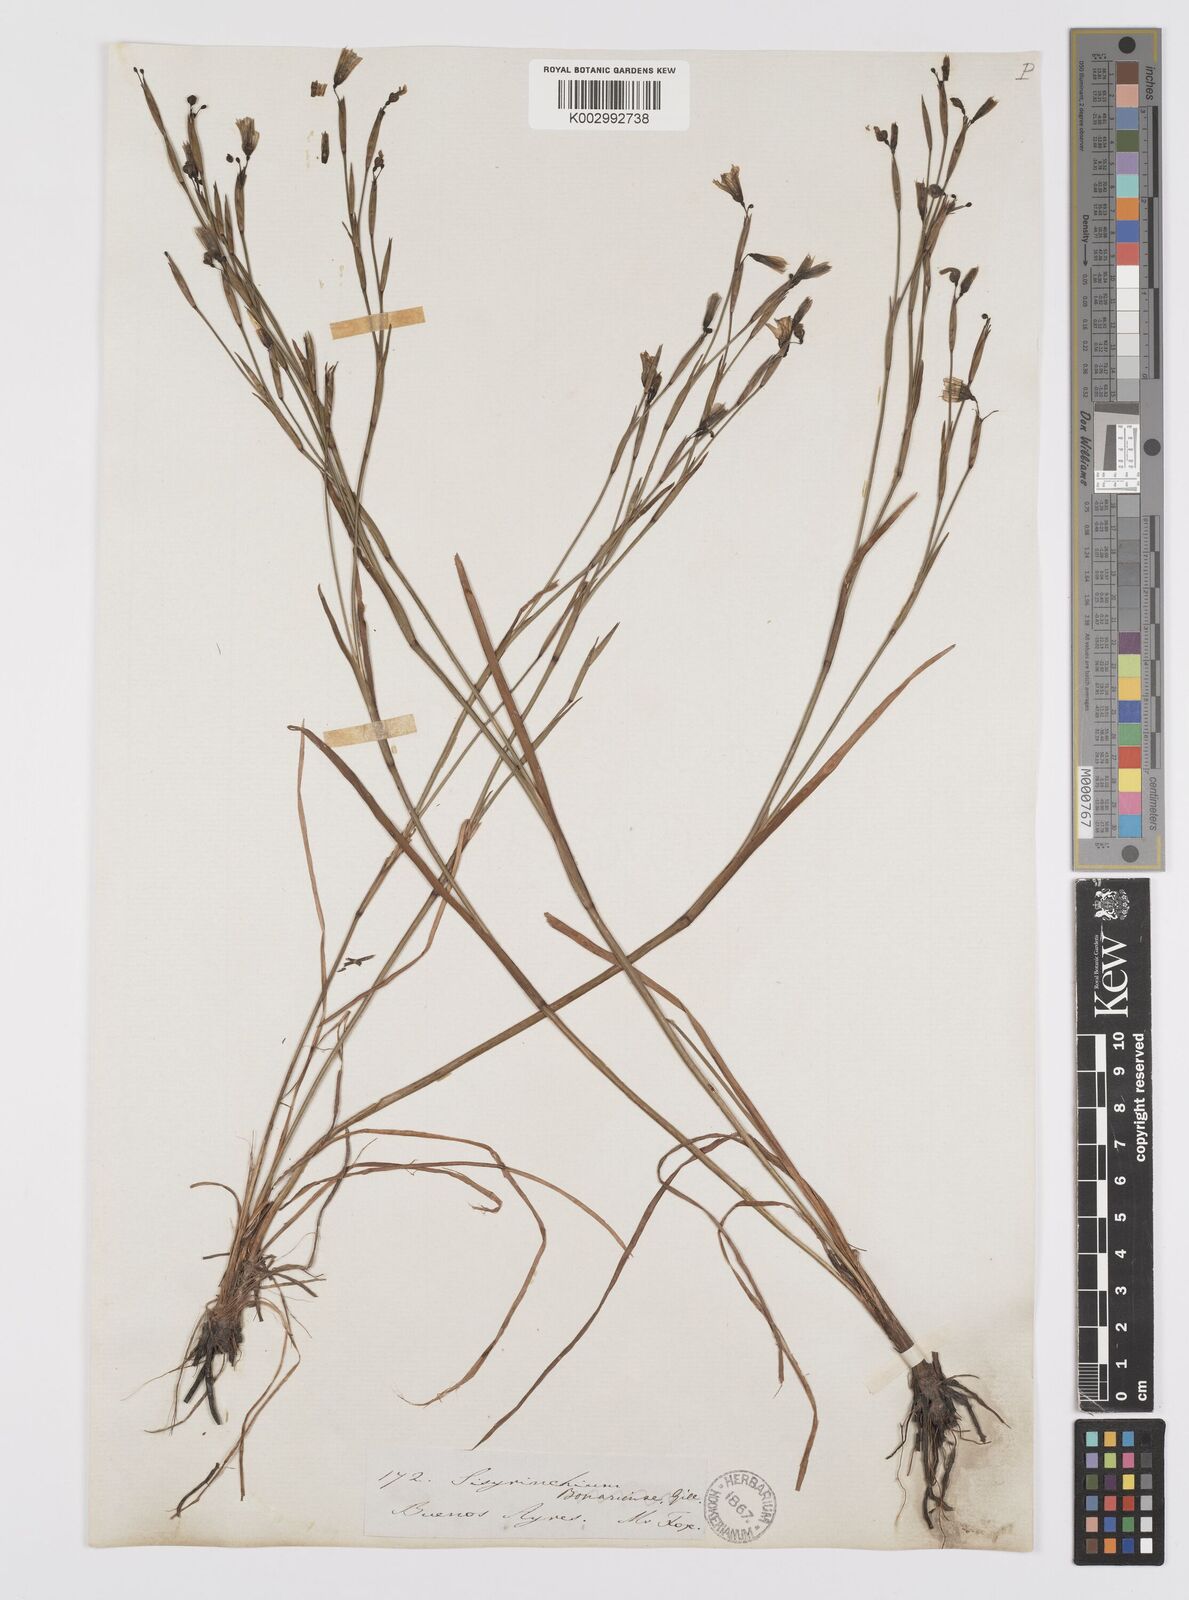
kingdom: Plantae
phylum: Tracheophyta
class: Liliopsida
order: Asparagales
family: Iridaceae
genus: Sisyrinchium
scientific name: Sisyrinchium chilense
